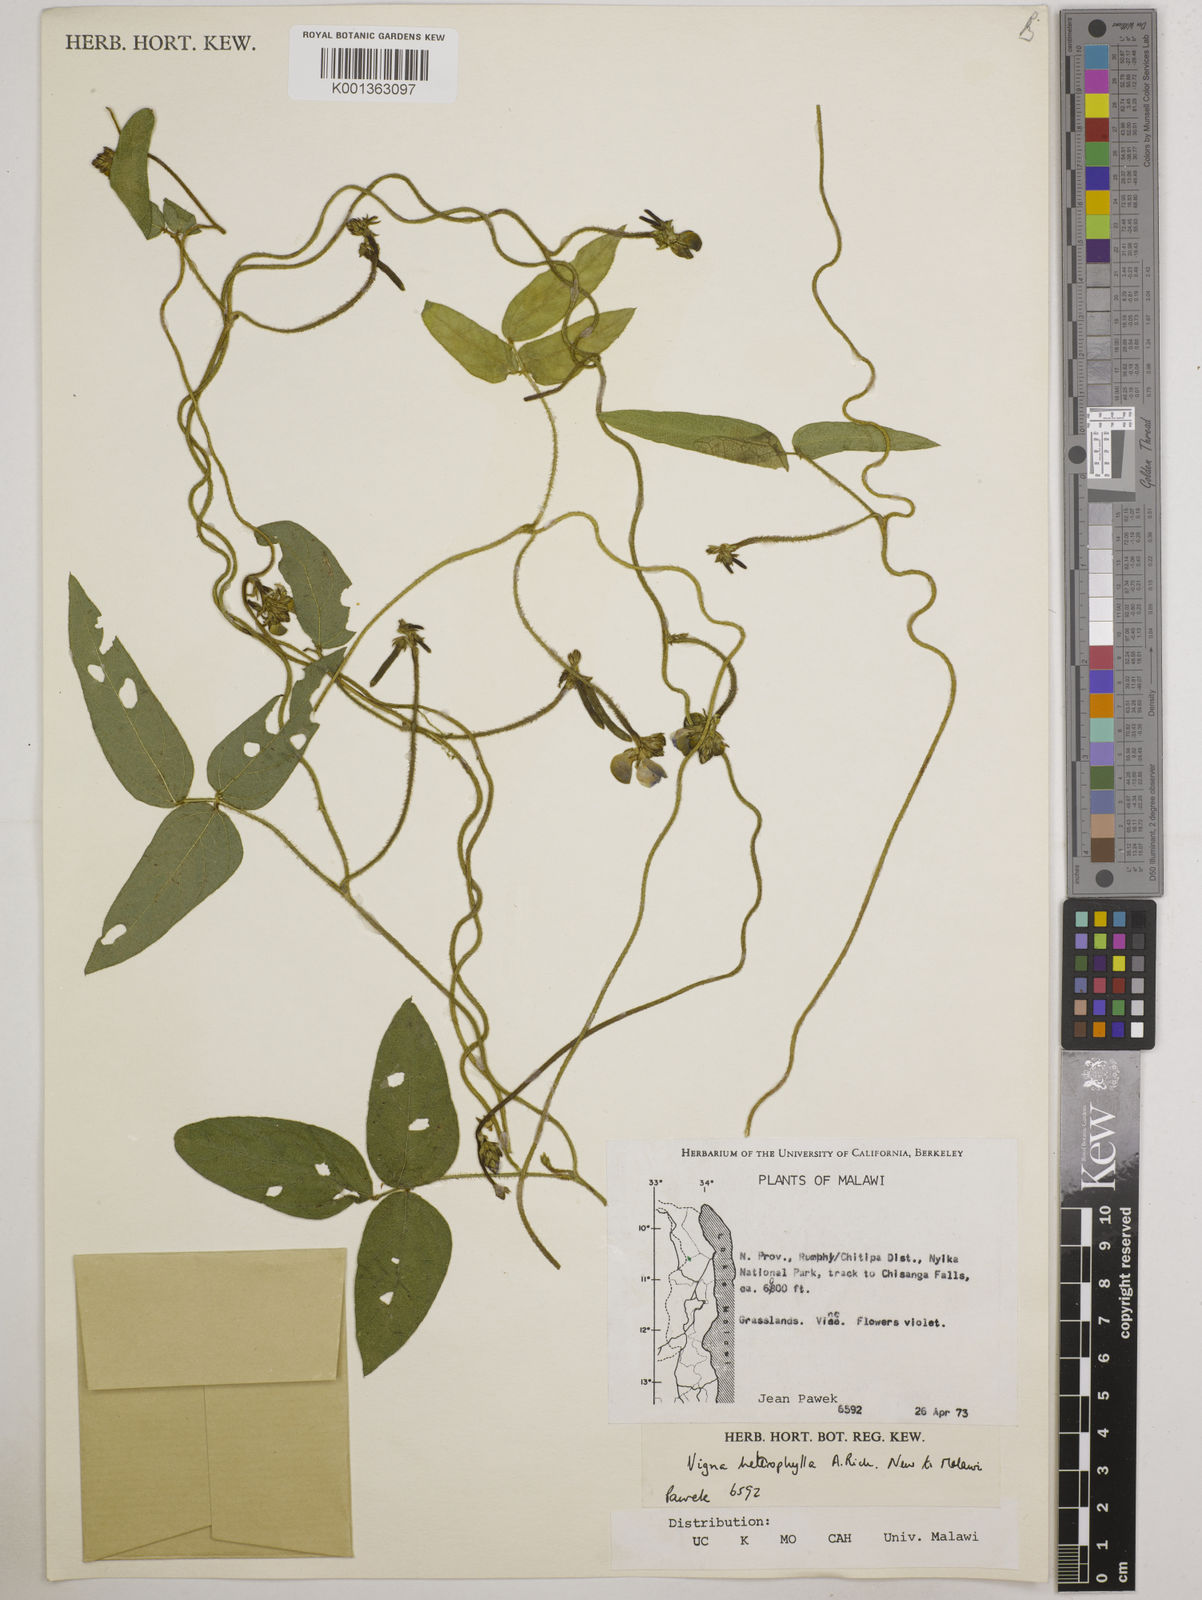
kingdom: Plantae
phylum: Tracheophyta
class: Magnoliopsida
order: Fabales
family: Fabaceae
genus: Vigna
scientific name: Vigna heterophylla
